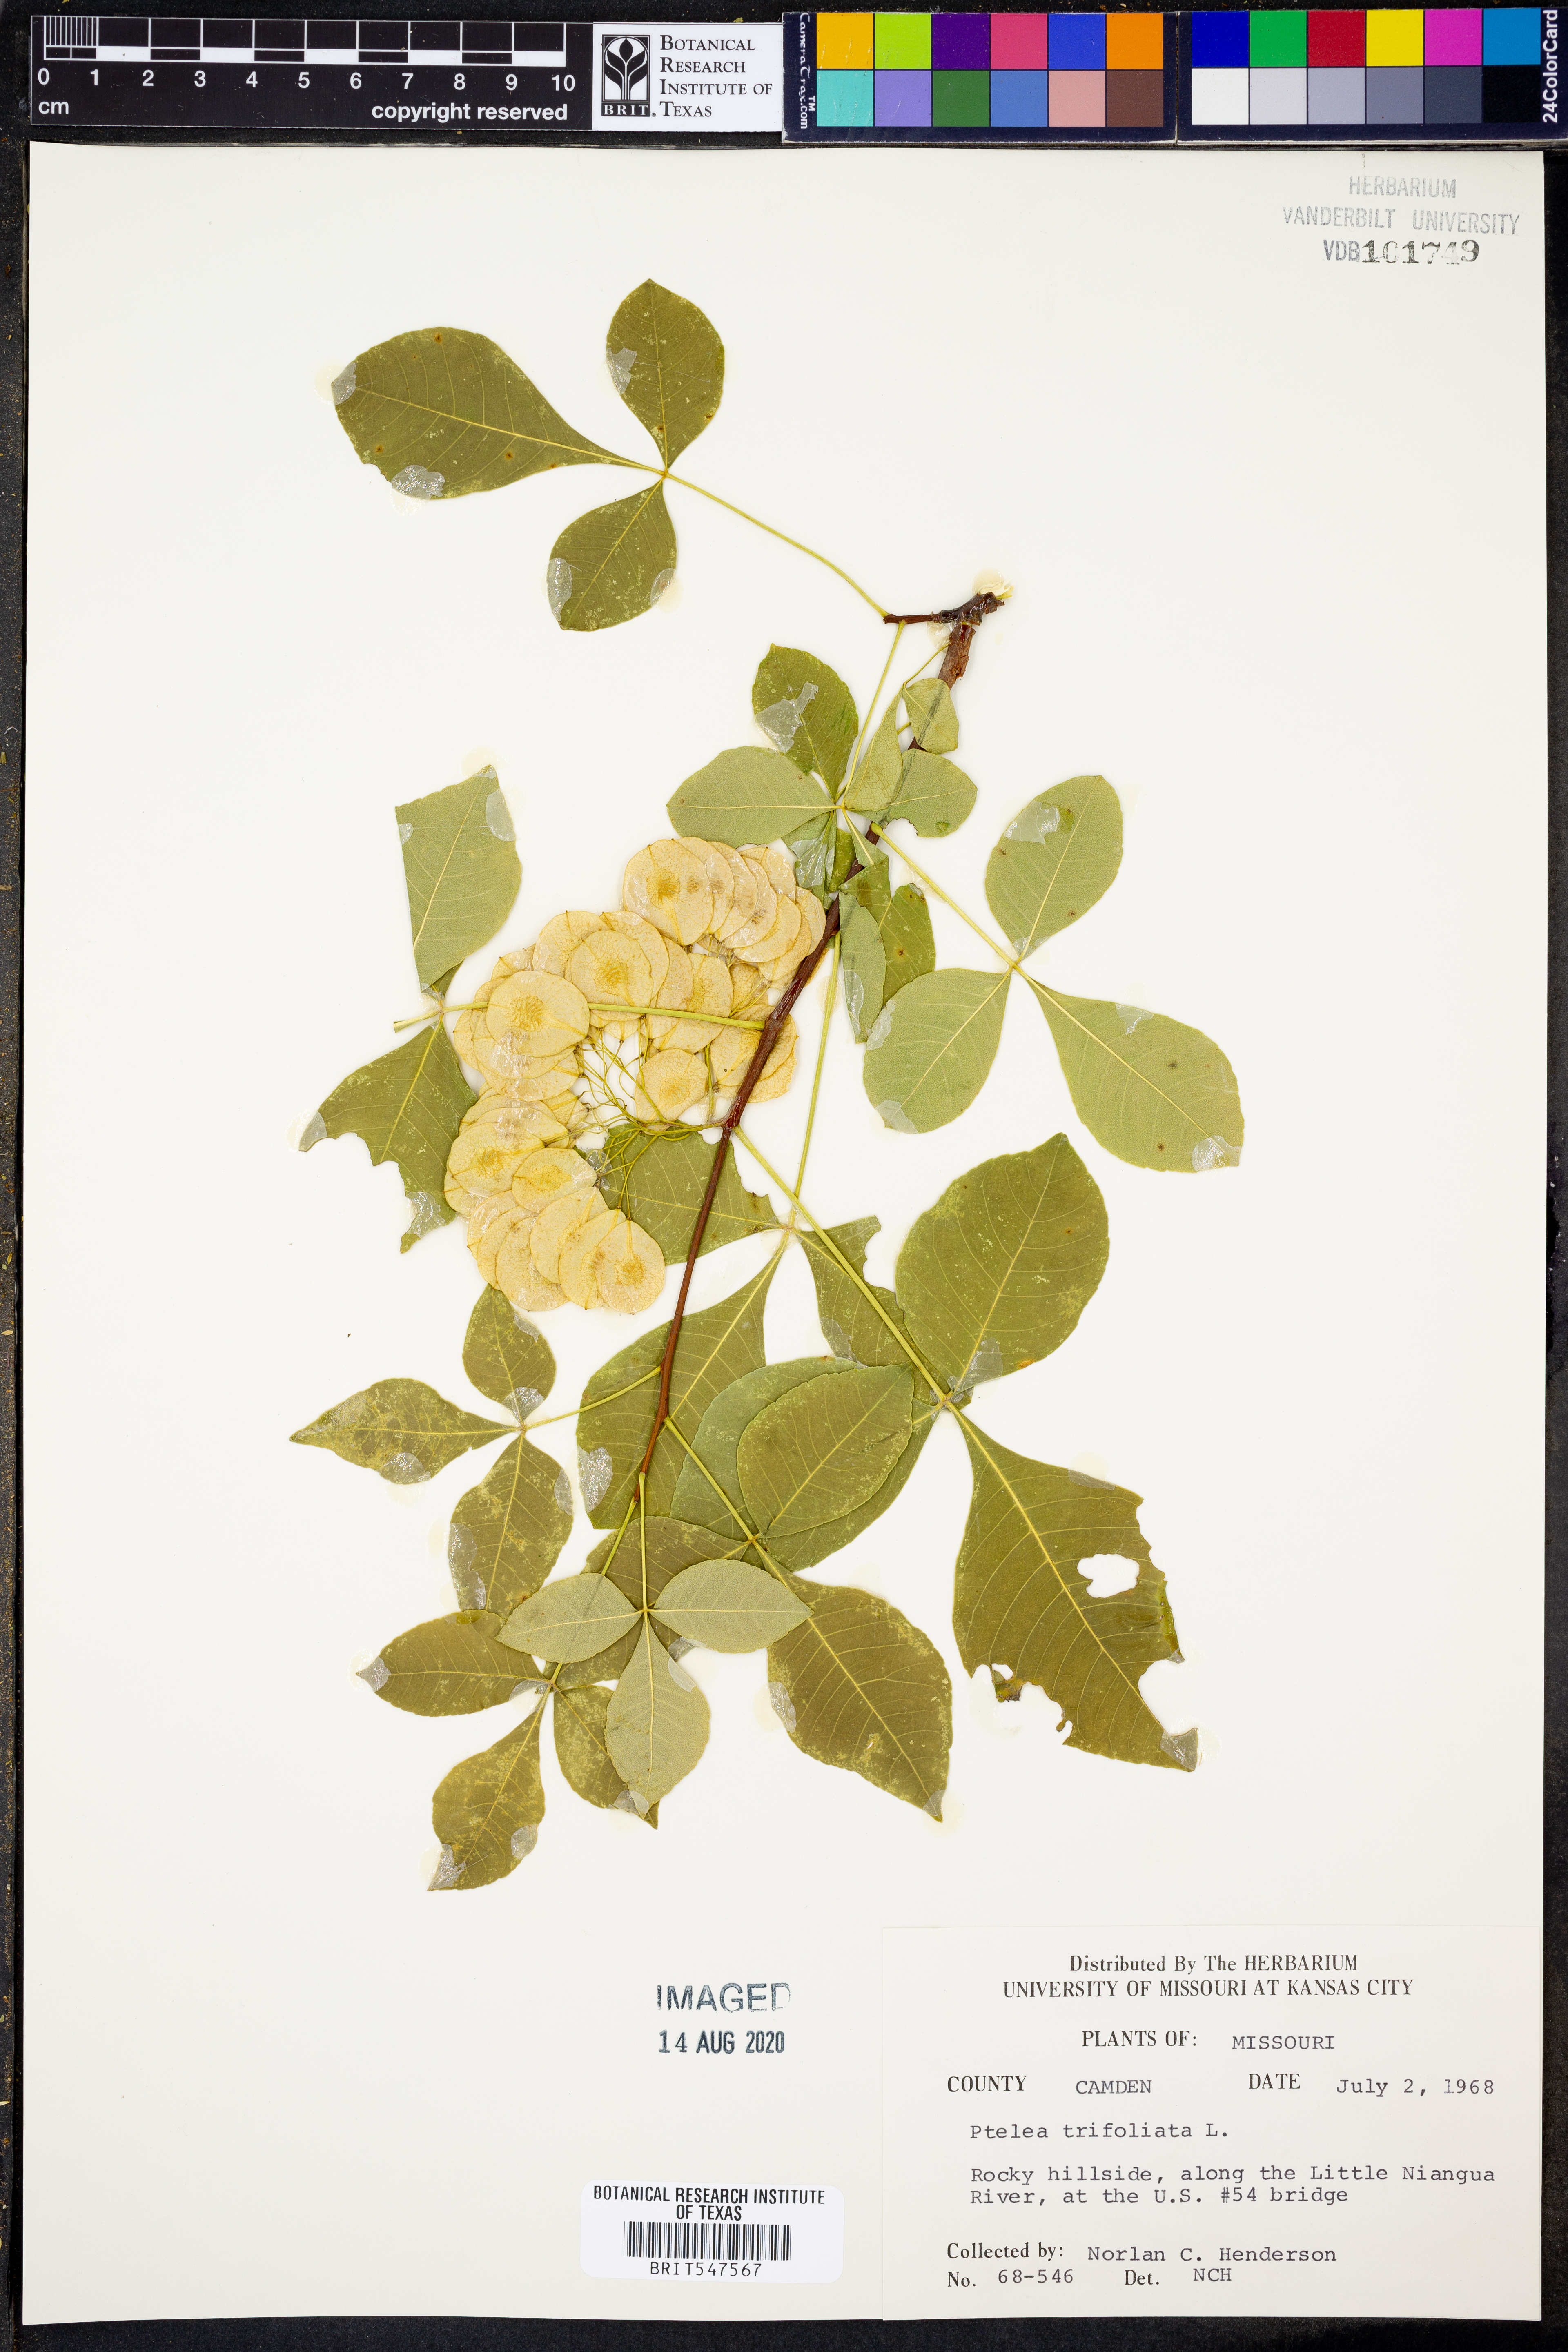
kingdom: Plantae
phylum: Tracheophyta
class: Magnoliopsida
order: Sapindales
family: Rutaceae
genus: Ptelea
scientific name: Ptelea trifoliata
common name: Common hop-tree
